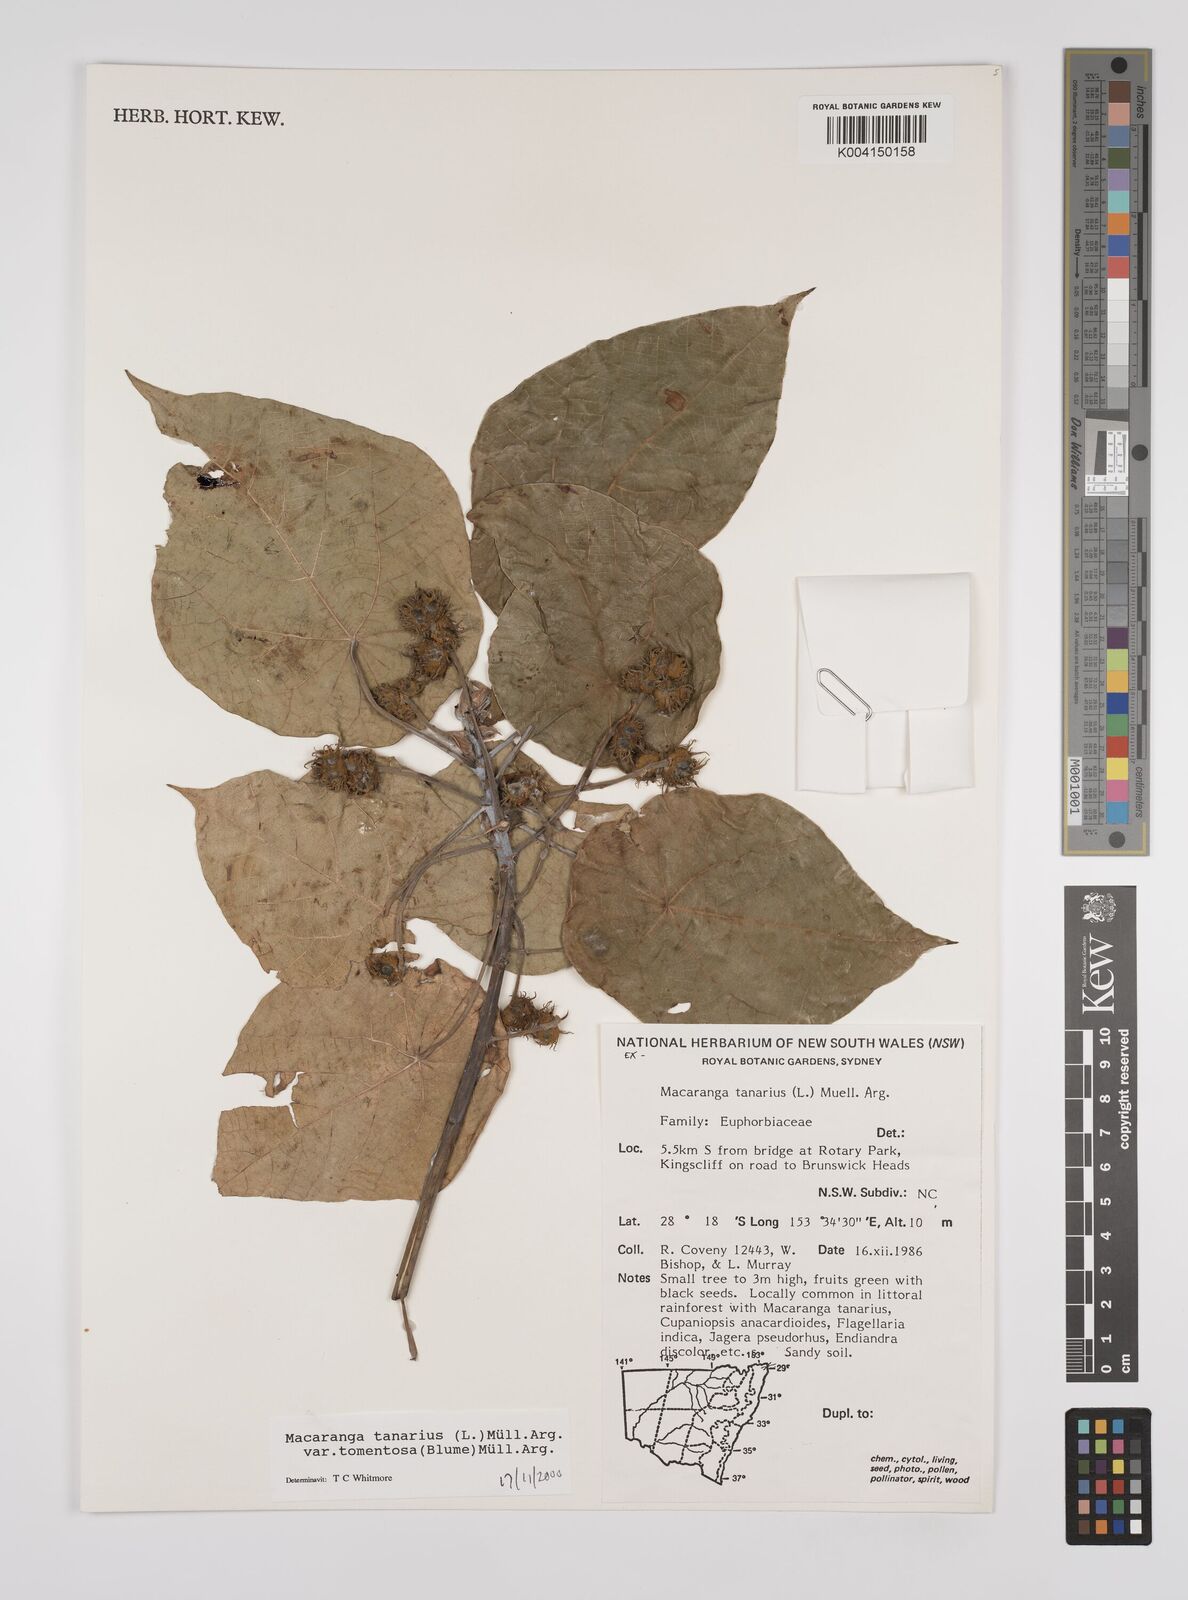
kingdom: Plantae
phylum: Tracheophyta
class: Magnoliopsida
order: Malpighiales
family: Euphorbiaceae
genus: Macaranga
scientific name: Macaranga tanarius
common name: Parasol leaf tree
